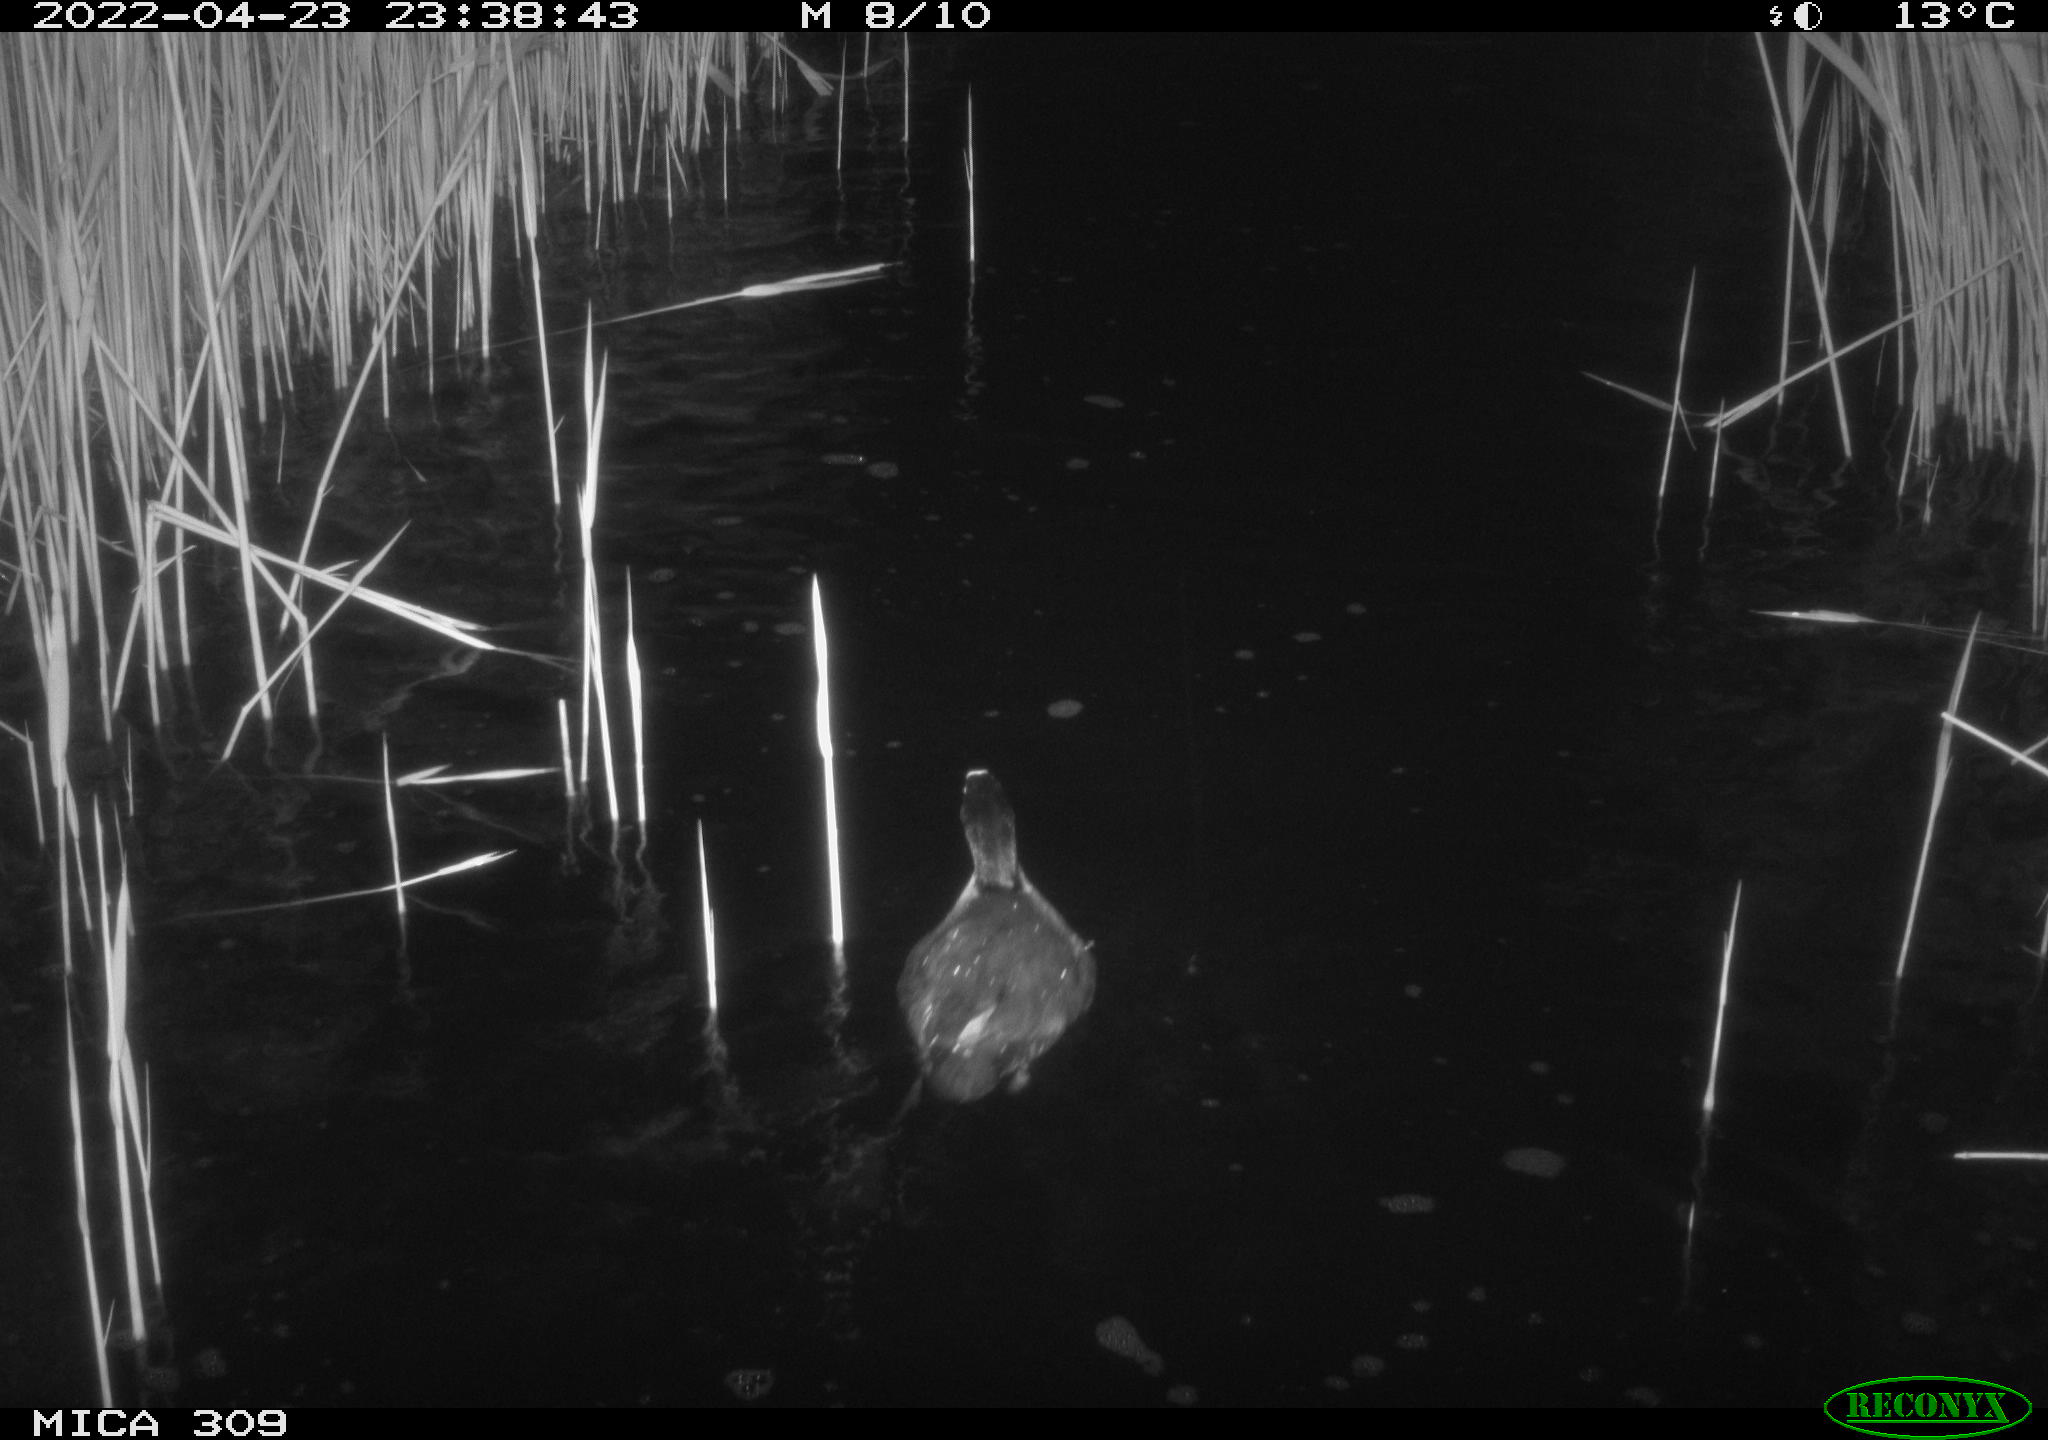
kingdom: Animalia
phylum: Chordata
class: Aves
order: Gruiformes
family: Rallidae
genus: Gallinula
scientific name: Gallinula chloropus
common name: Common moorhen
